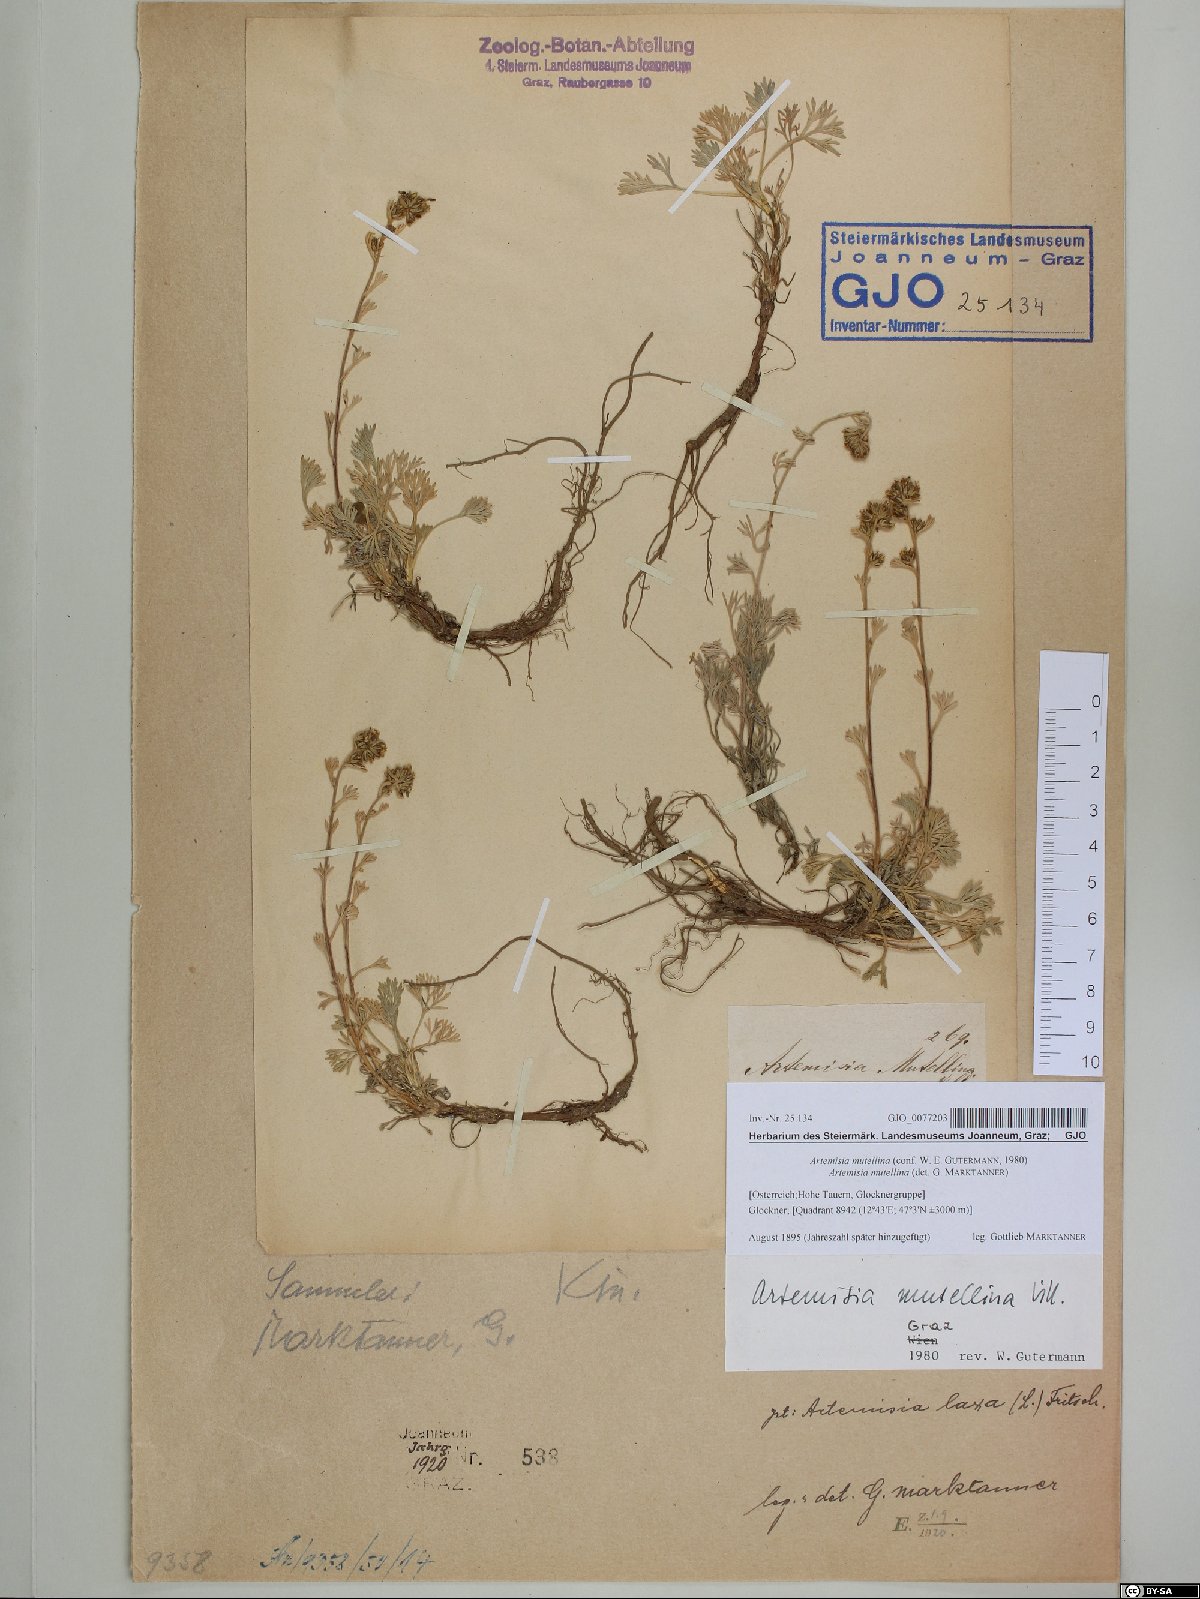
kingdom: Plantae
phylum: Tracheophyta
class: Magnoliopsida
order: Asterales
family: Asteraceae
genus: Artemisia
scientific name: Artemisia mutellina
